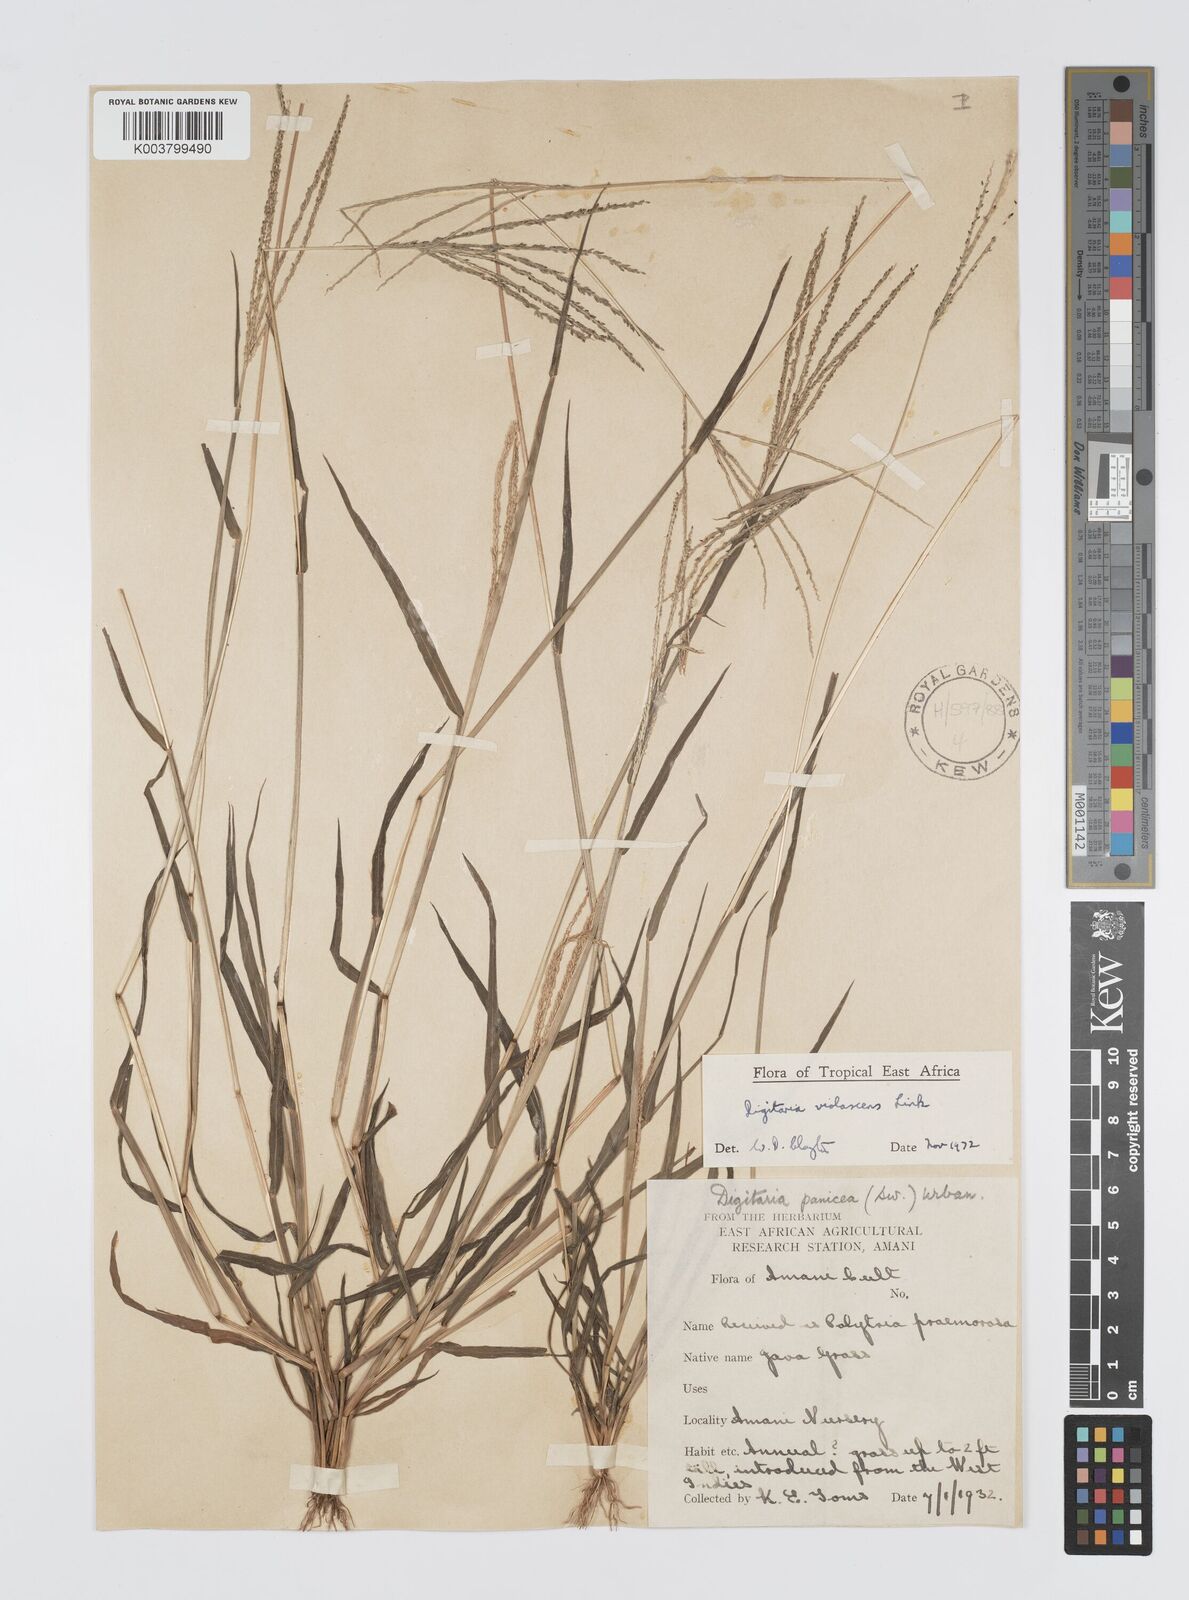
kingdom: Plantae
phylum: Tracheophyta
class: Liliopsida
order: Poales
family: Poaceae
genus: Digitaria
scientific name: Digitaria violascens
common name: Violet crabgrass
